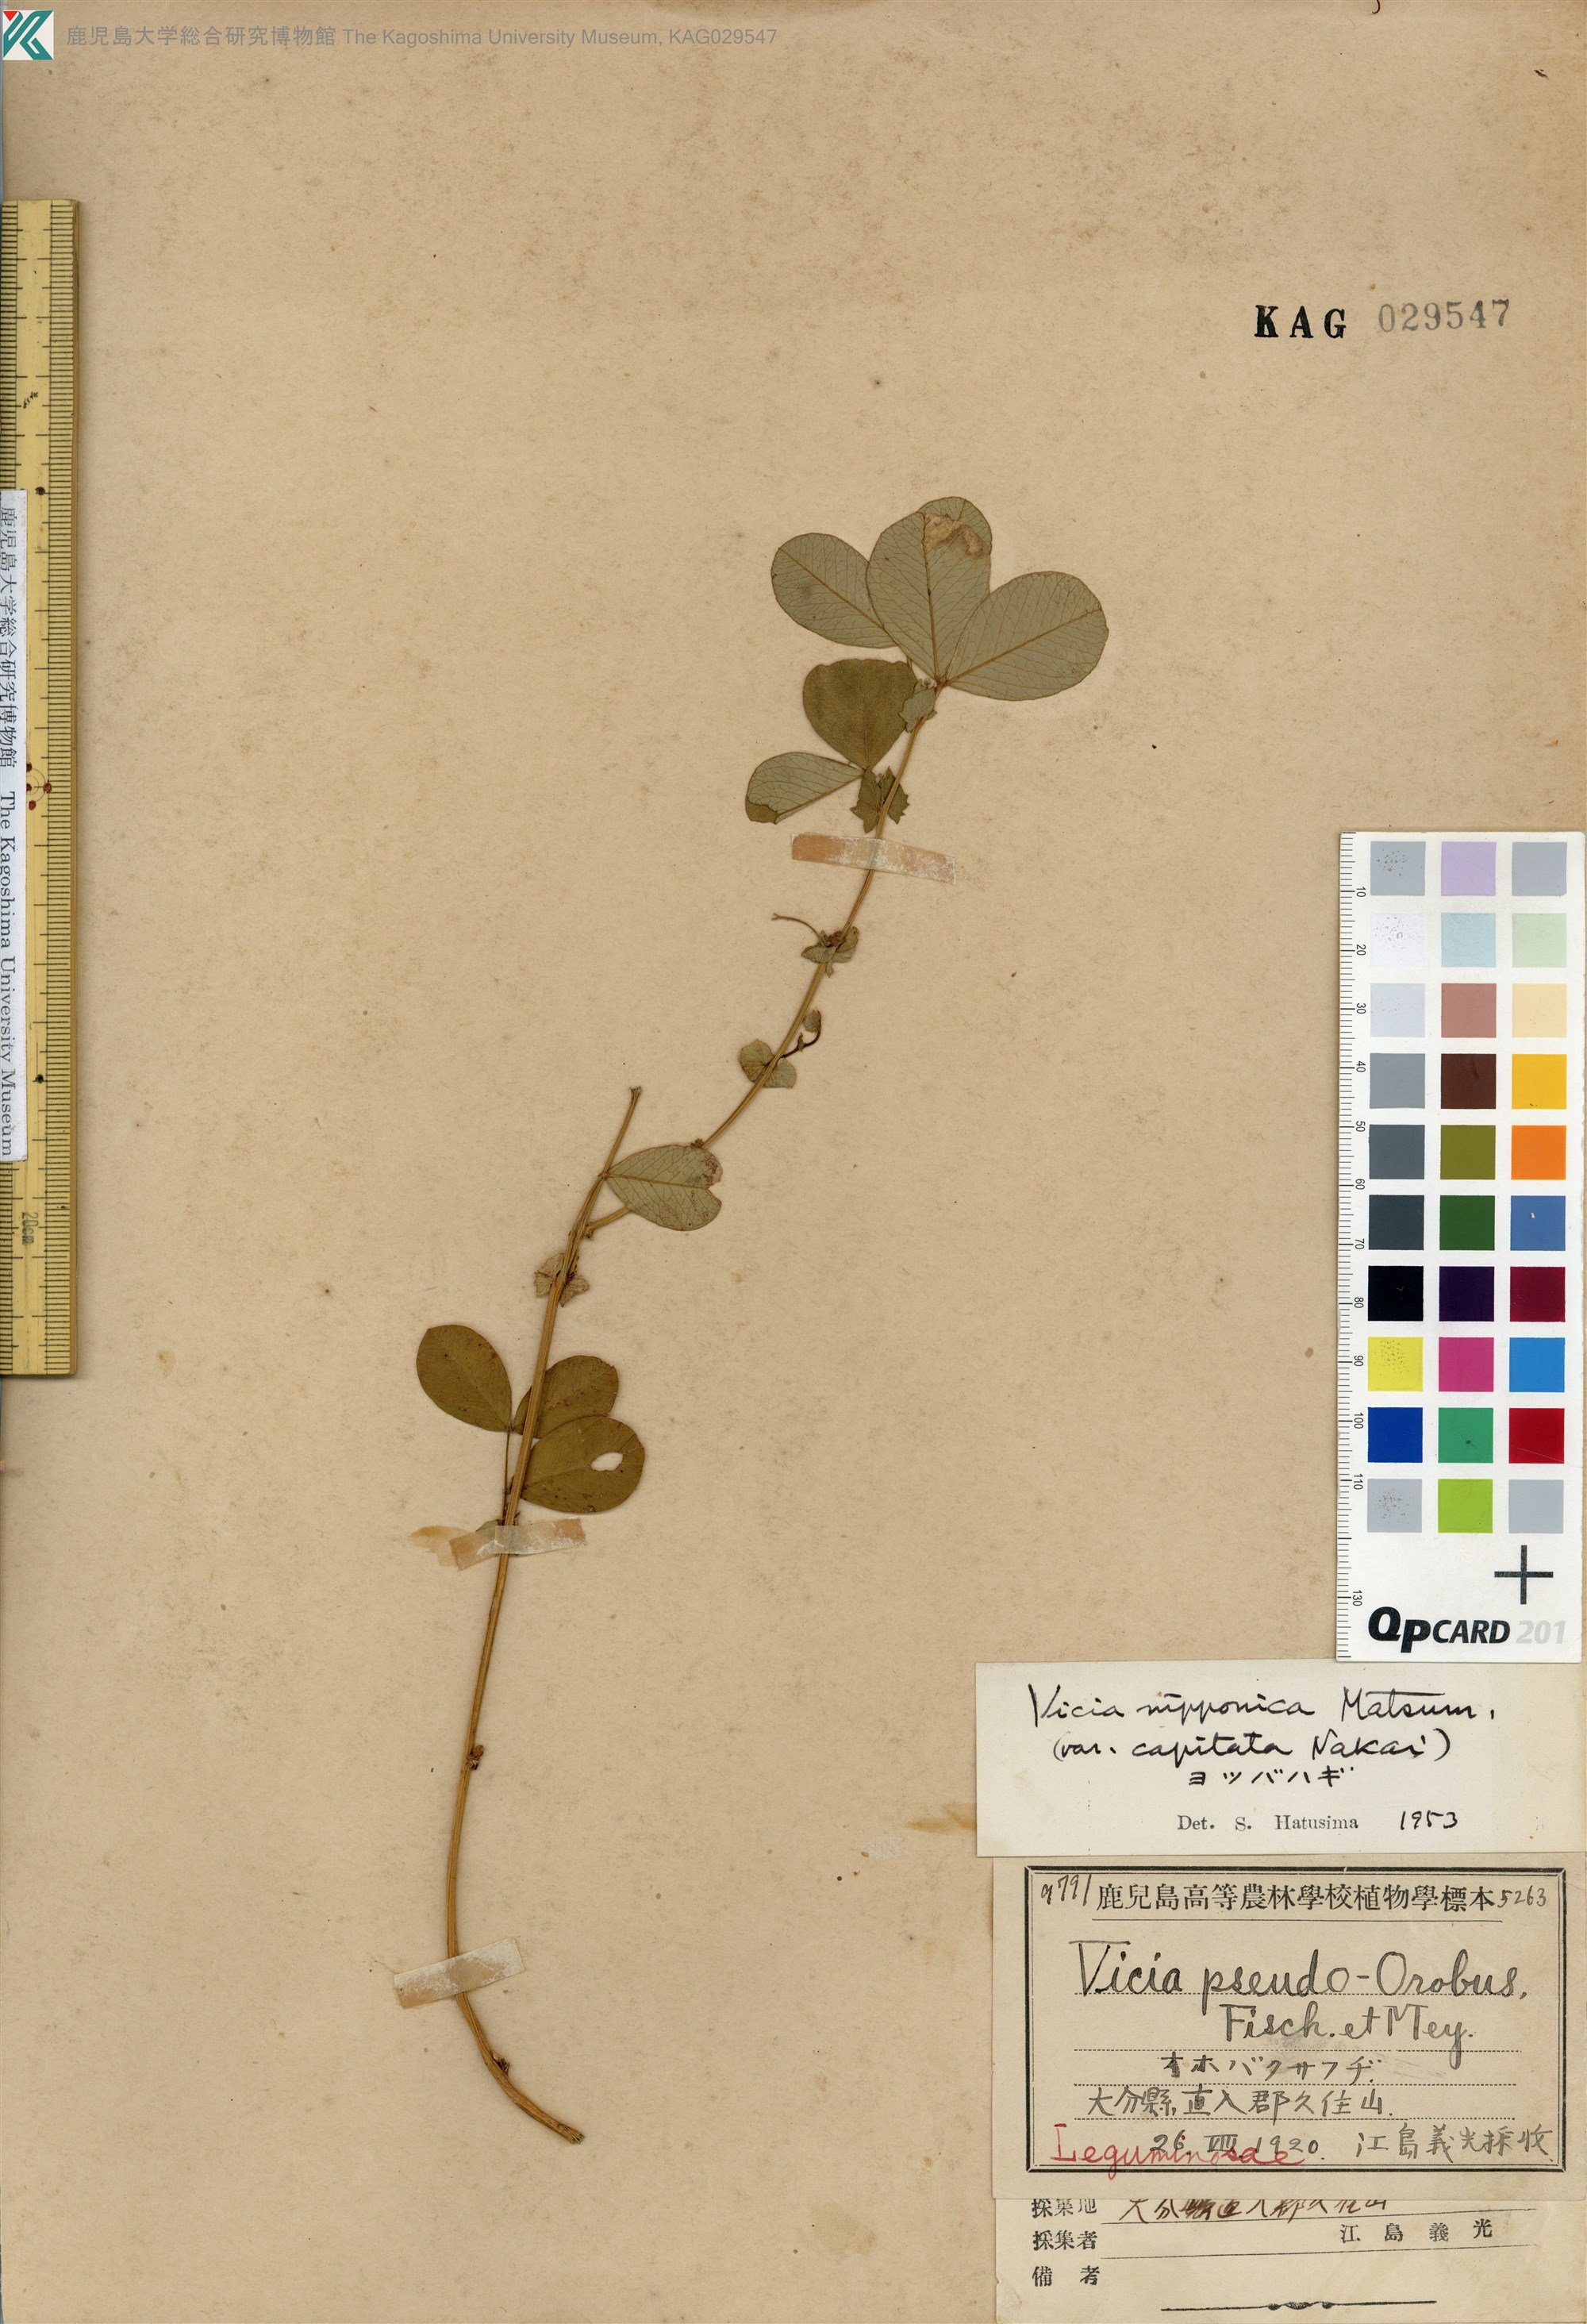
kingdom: Plantae
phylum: Tracheophyta
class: Magnoliopsida
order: Fabales
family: Fabaceae
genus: Vicia
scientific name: Vicia nipponica
